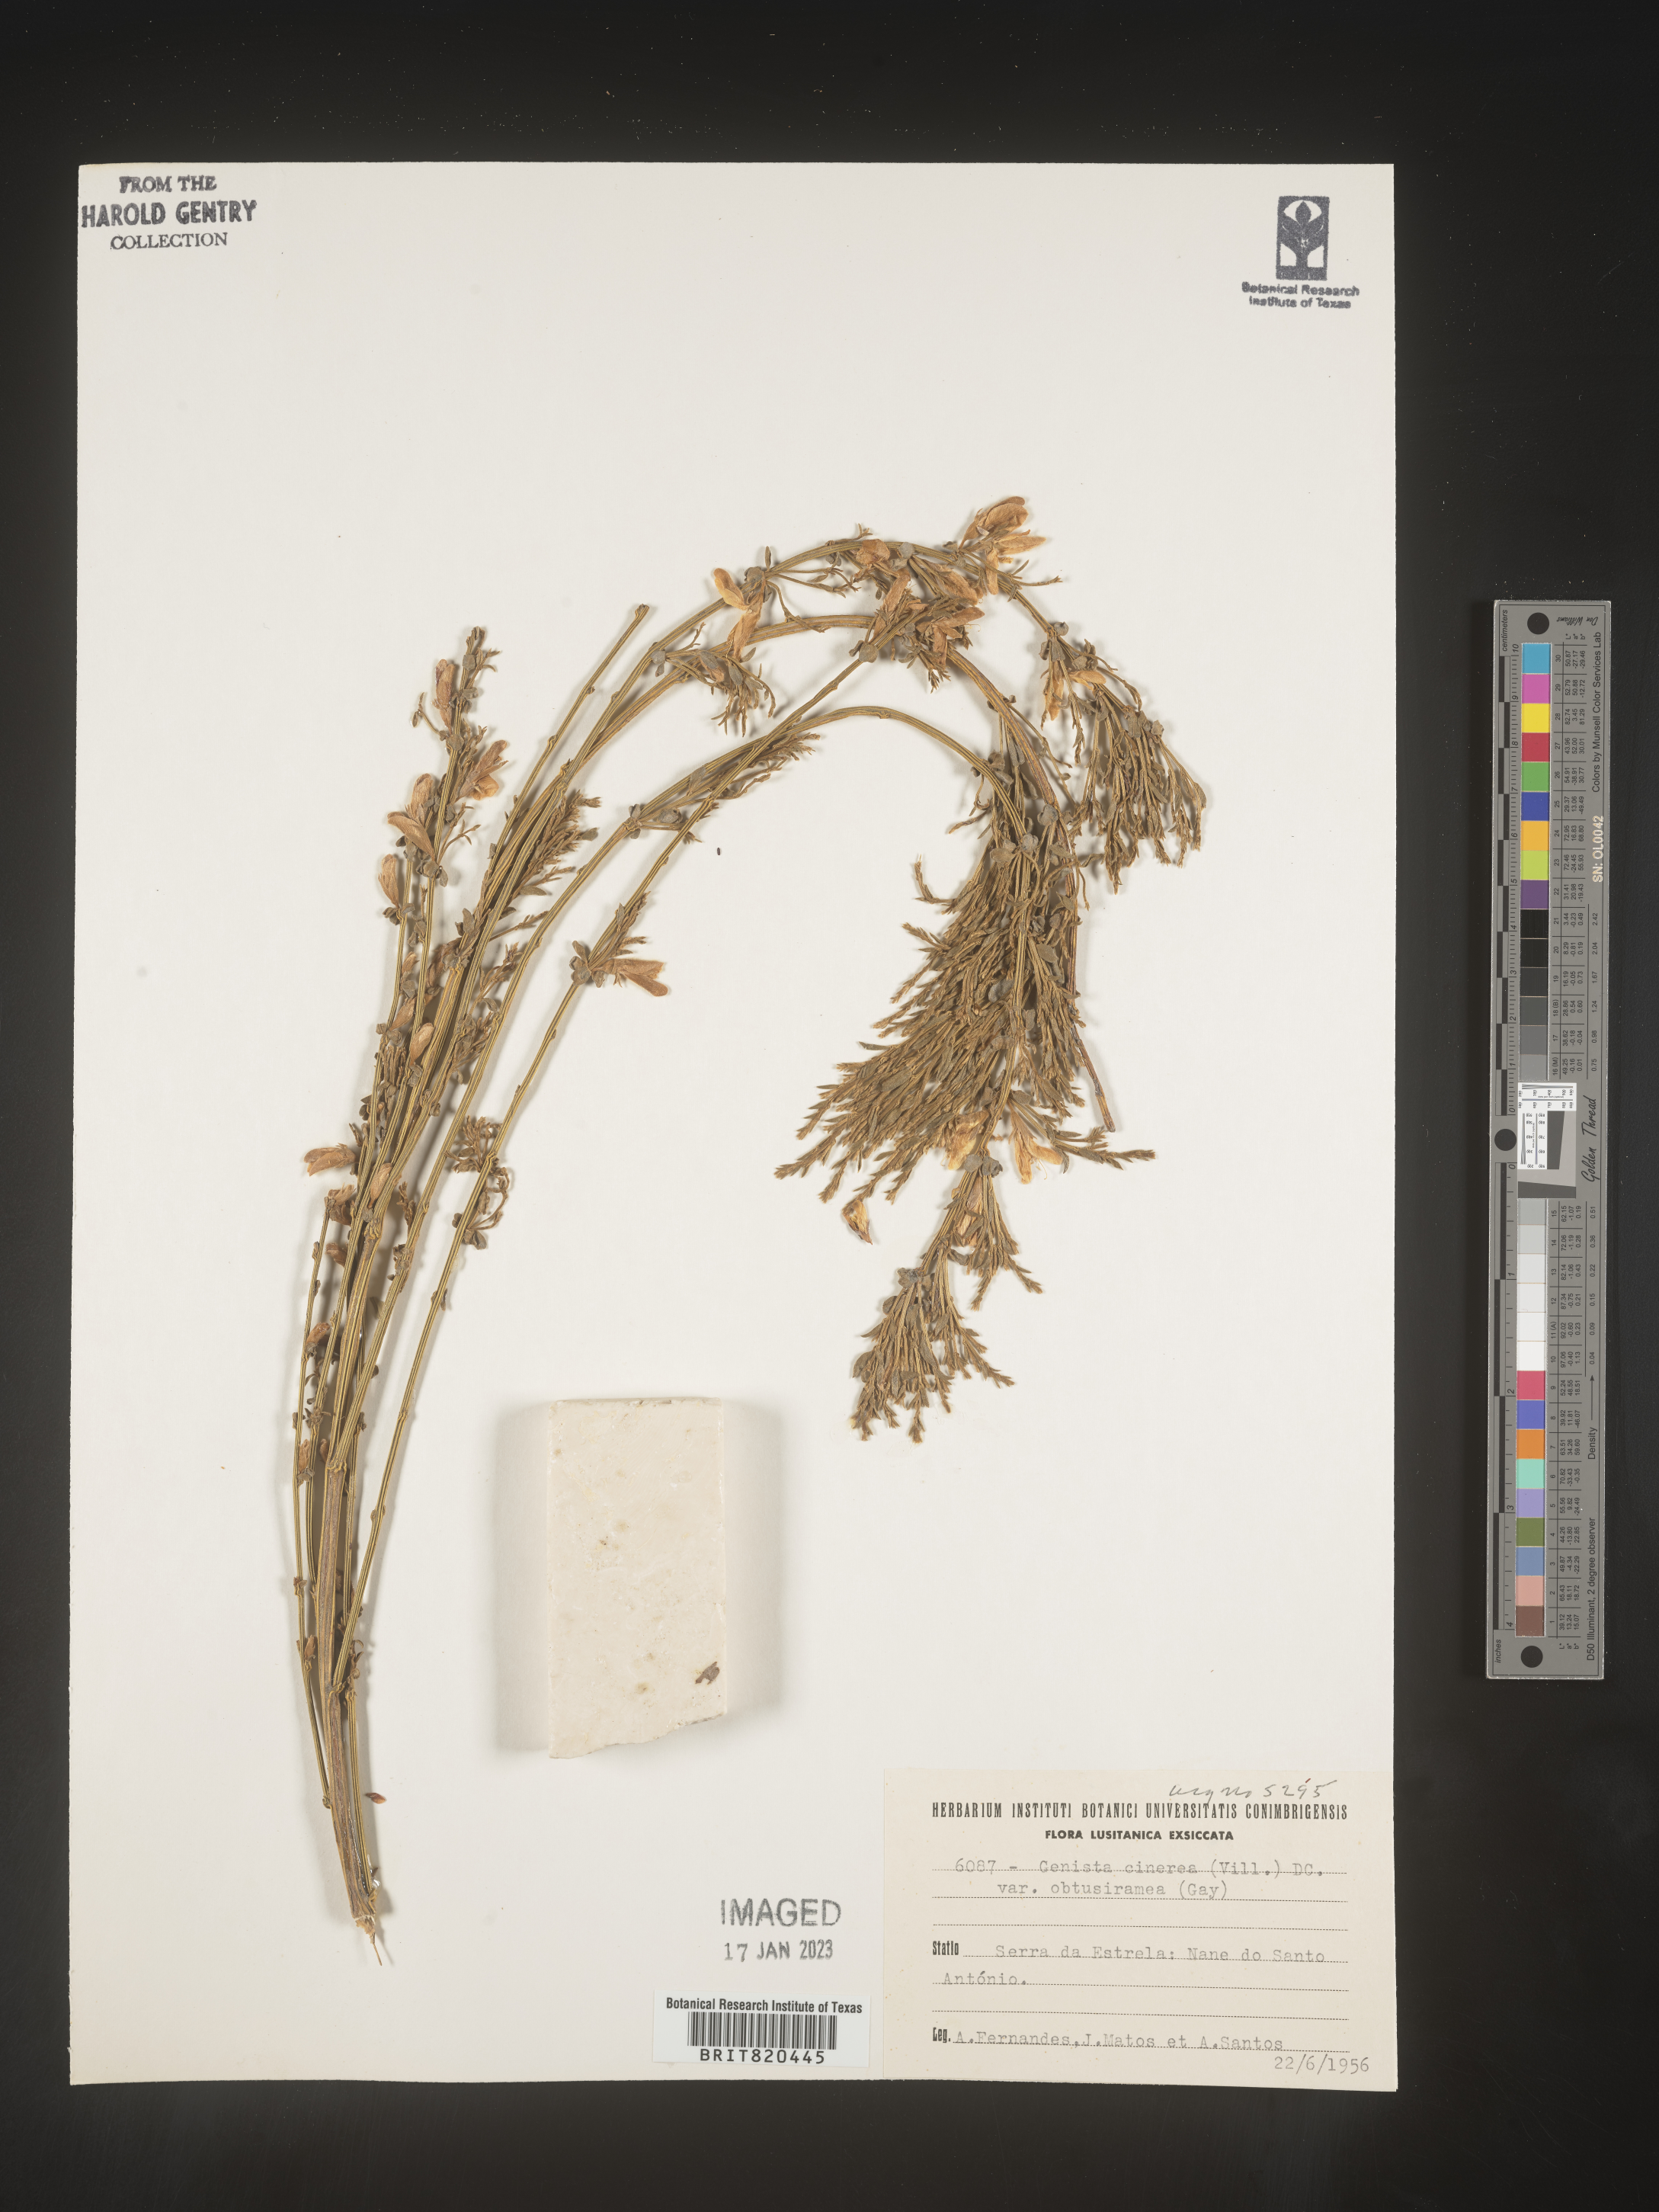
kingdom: Plantae
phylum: Tracheophyta
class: Magnoliopsida
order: Fabales
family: Fabaceae
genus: Genista
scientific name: Genista
